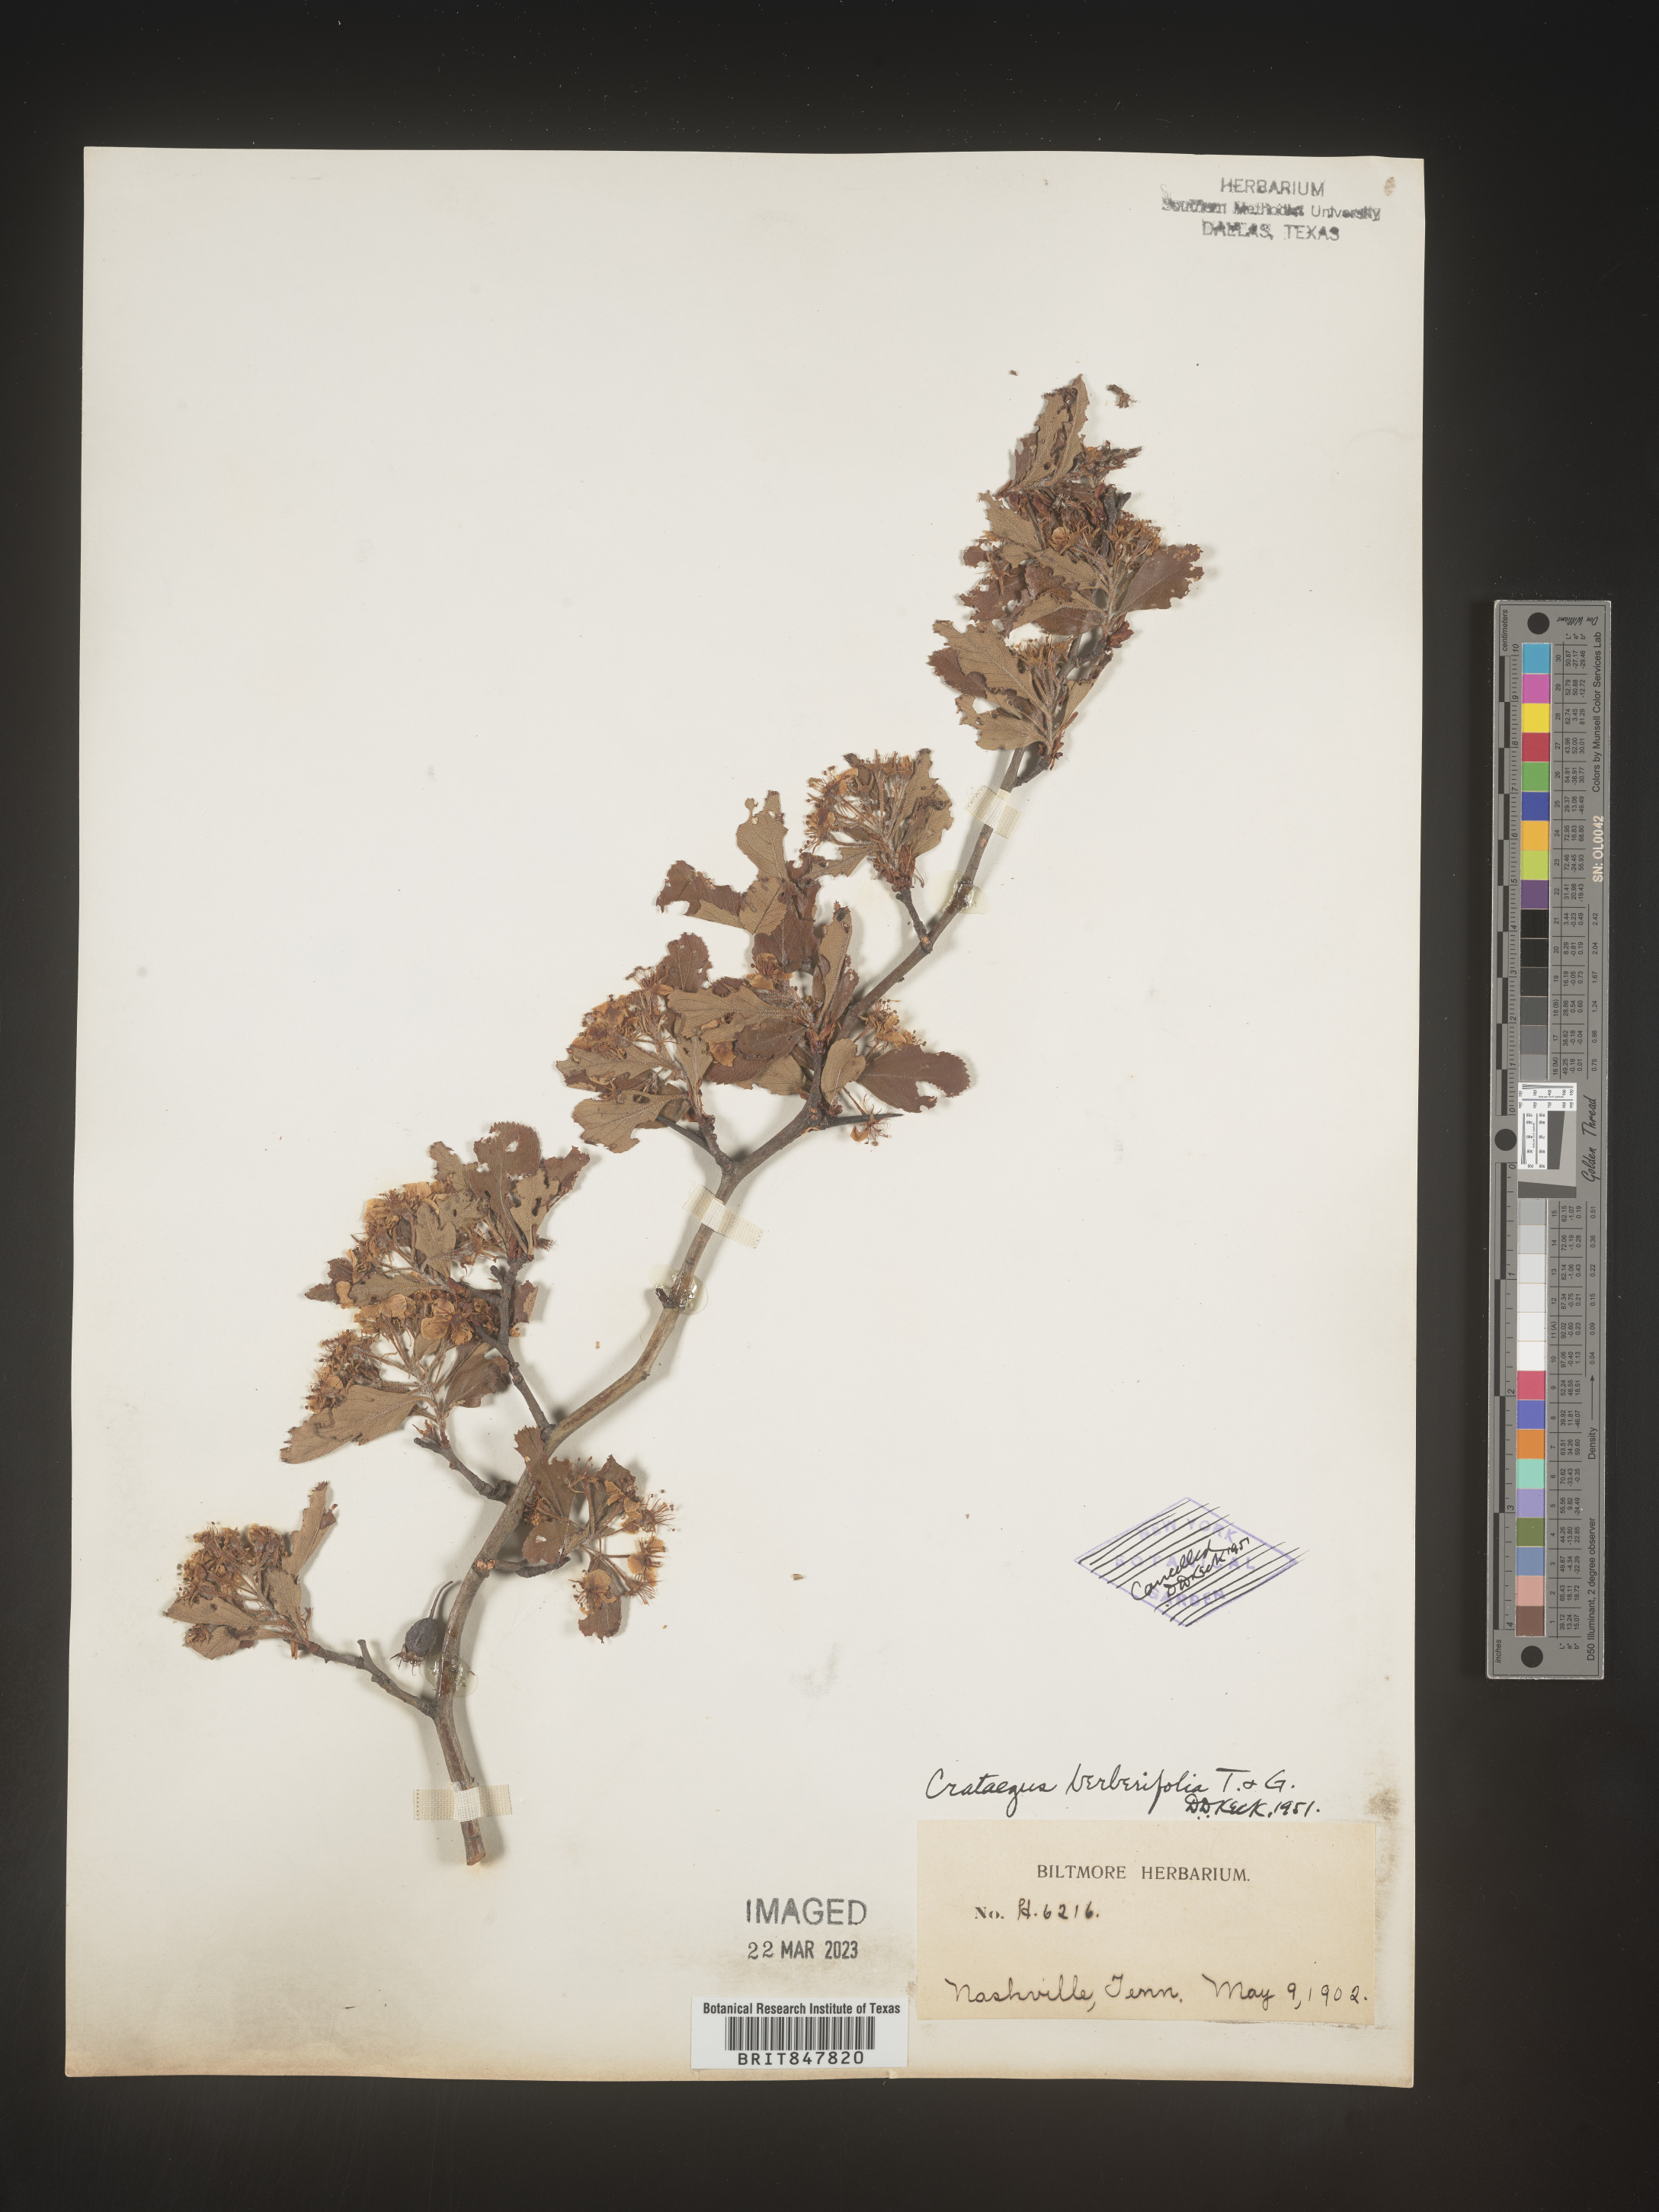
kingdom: Plantae
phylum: Tracheophyta
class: Magnoliopsida
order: Rosales
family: Rosaceae
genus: Crataegus
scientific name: Crataegus
